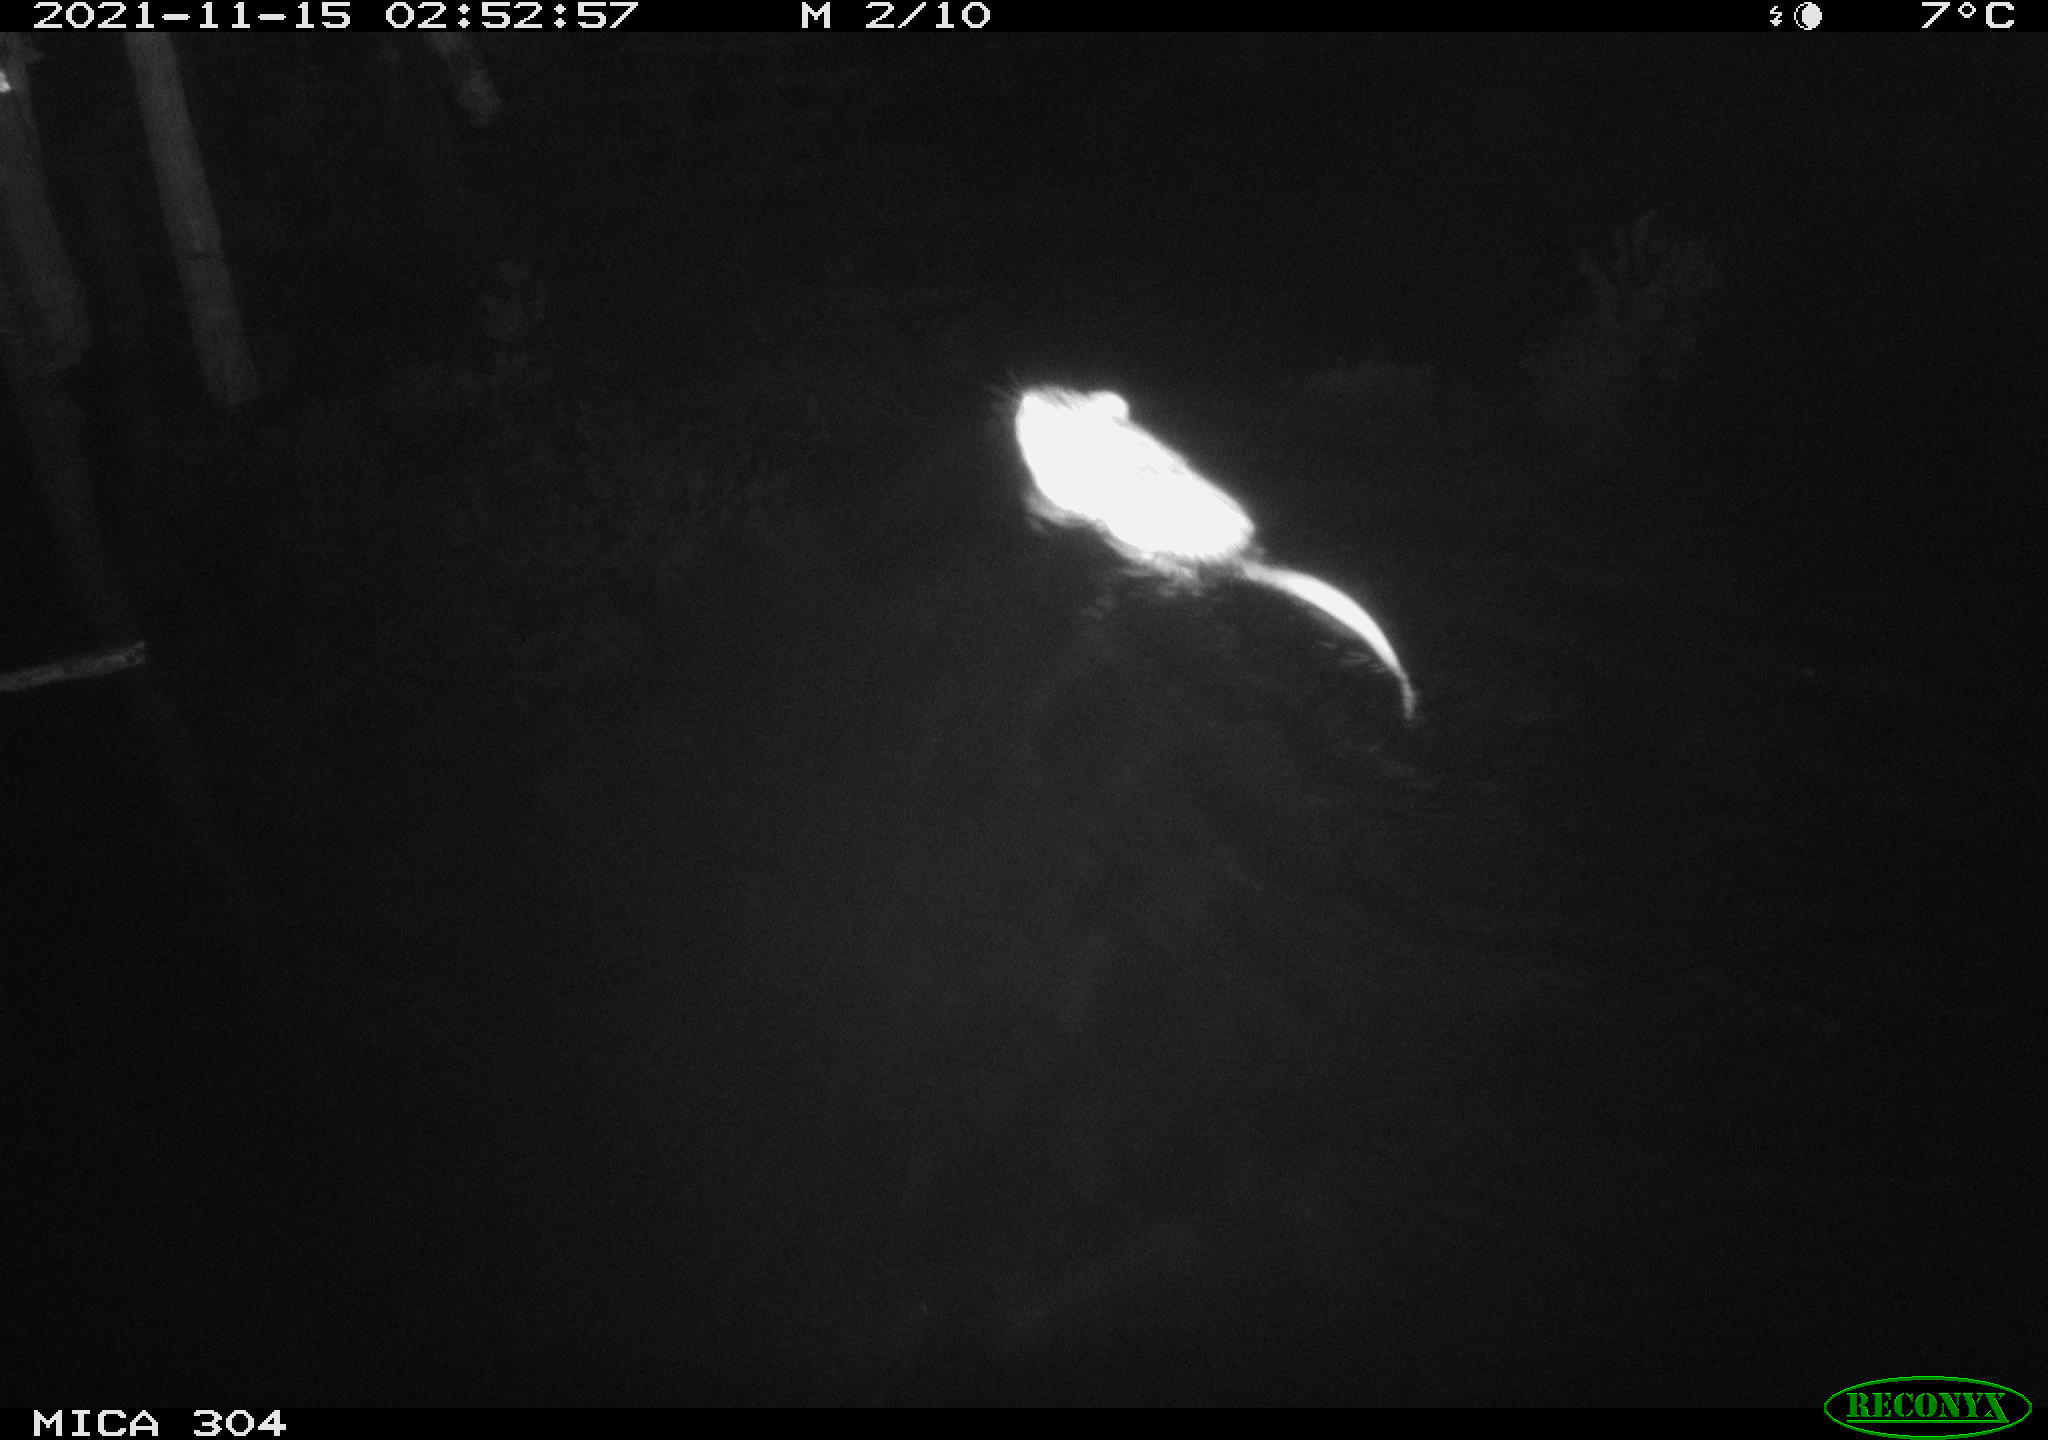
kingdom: Animalia
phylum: Chordata
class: Mammalia
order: Rodentia
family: Cricetidae
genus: Ondatra
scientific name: Ondatra zibethicus
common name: Muskrat
